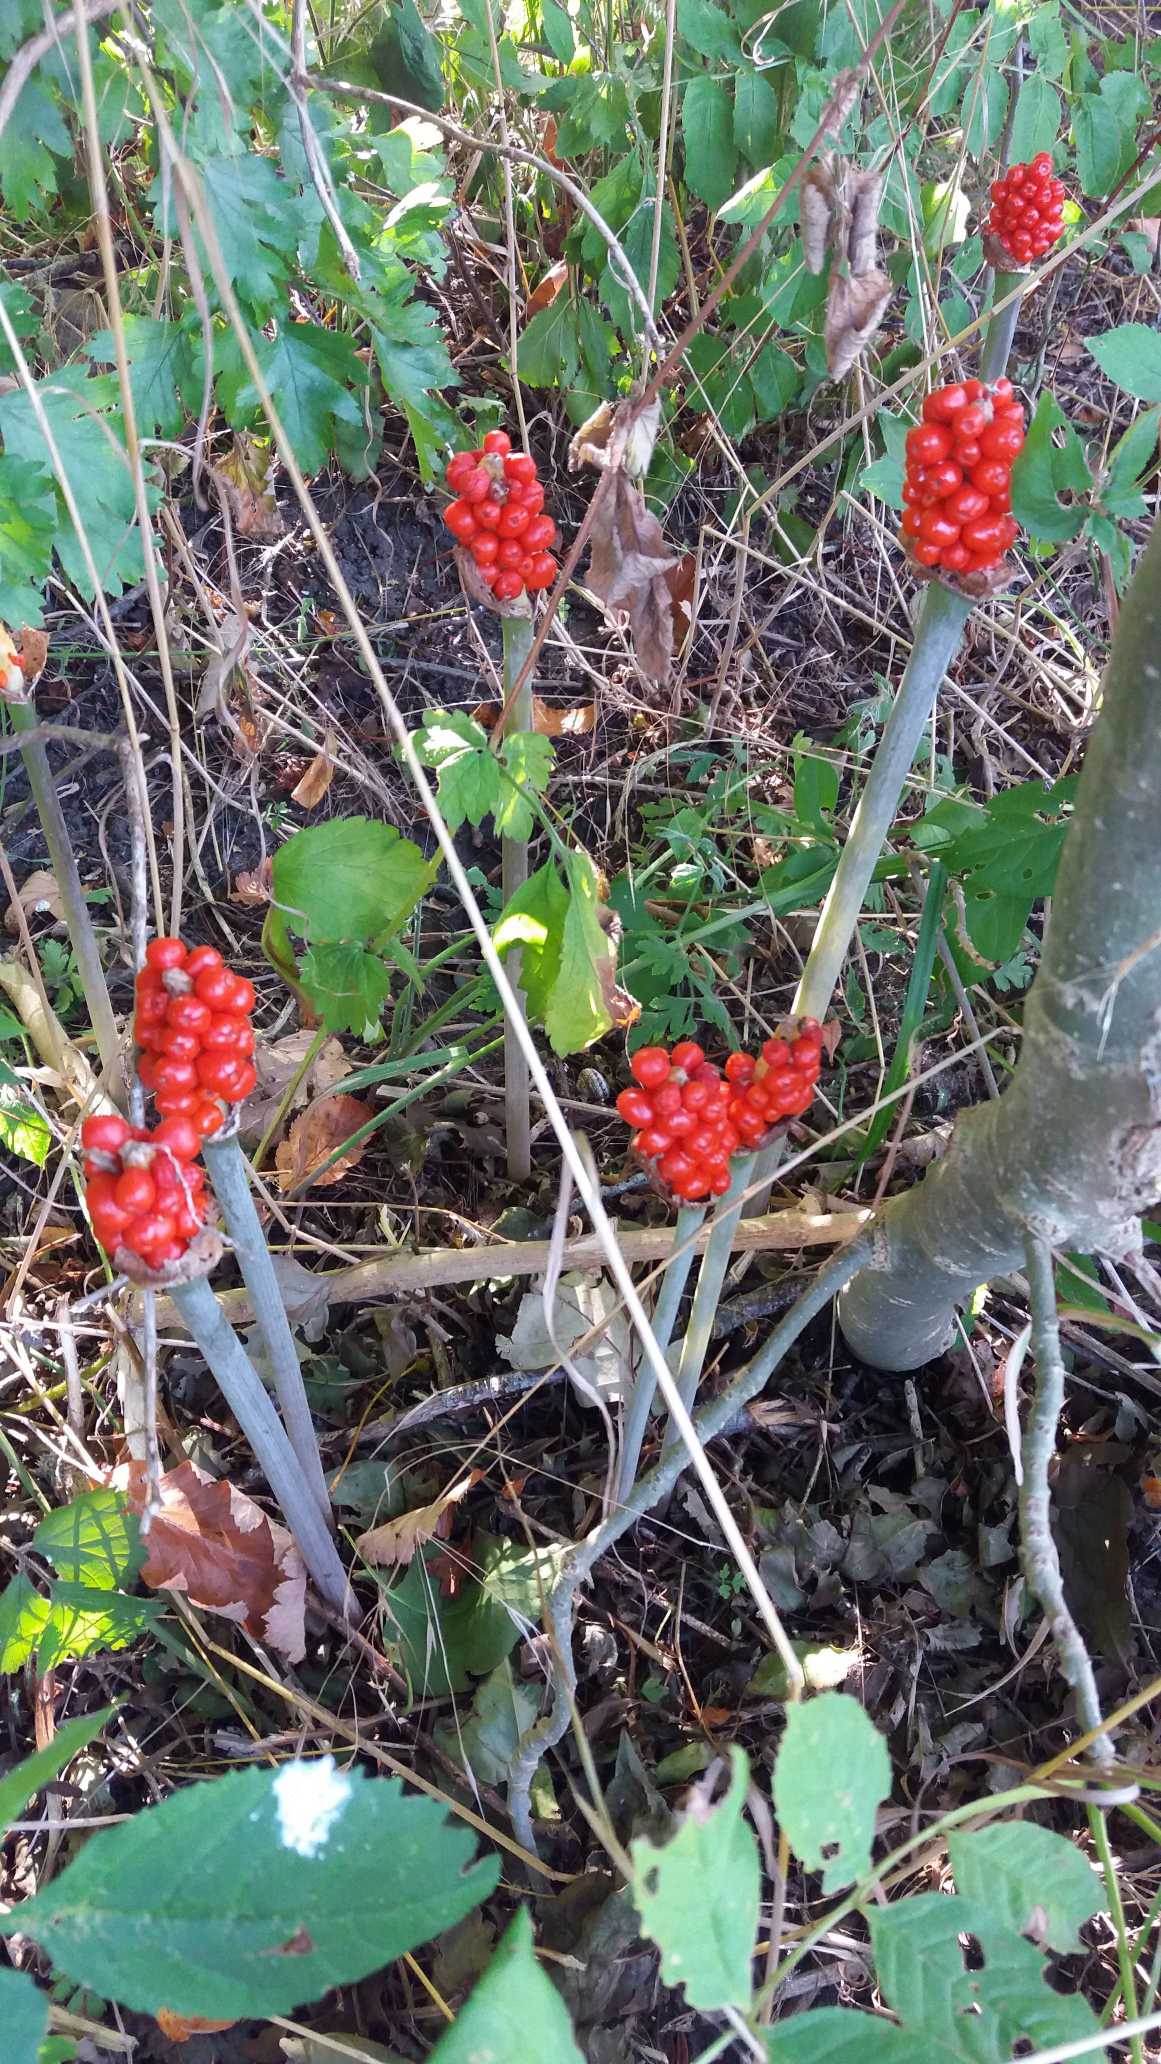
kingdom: Plantae
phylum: Tracheophyta
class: Liliopsida
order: Alismatales
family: Araceae
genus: Arum
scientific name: Arum
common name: Arumslægten
